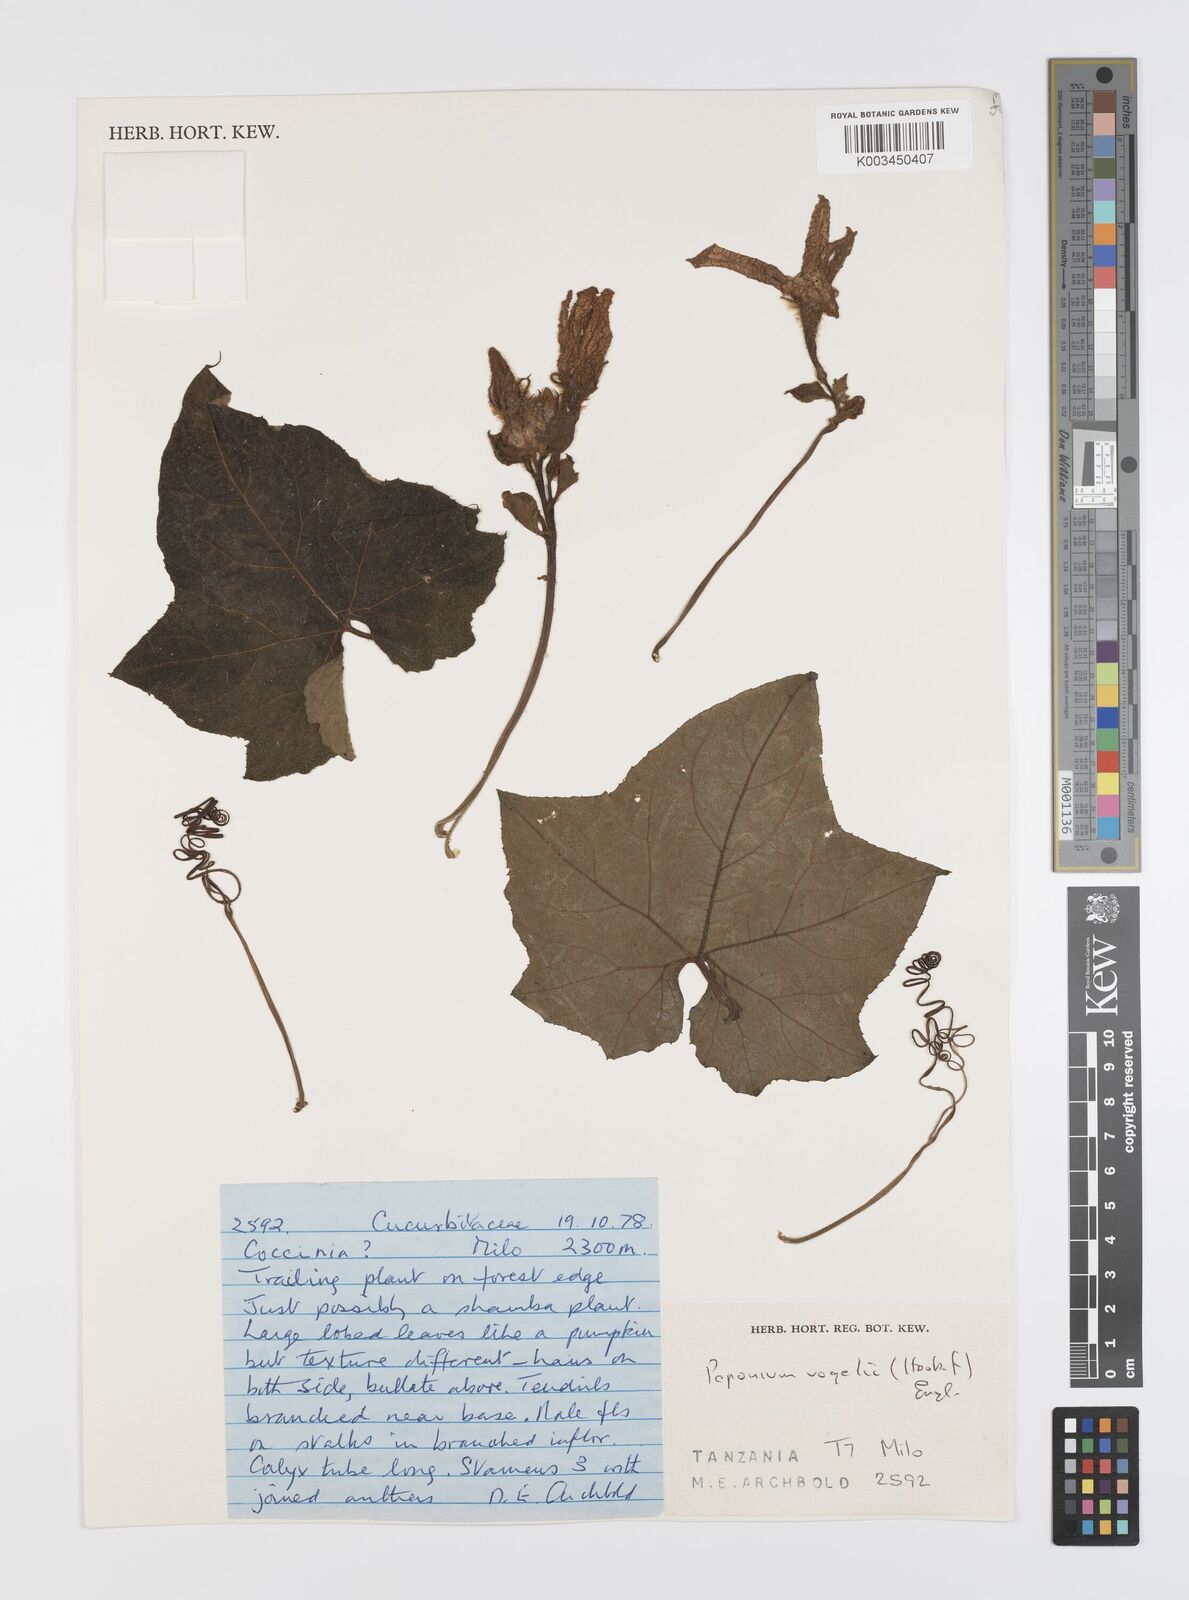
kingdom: Plantae
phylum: Tracheophyta
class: Magnoliopsida
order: Cucurbitales
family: Cucurbitaceae
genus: Peponium
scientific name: Peponium vogelii
